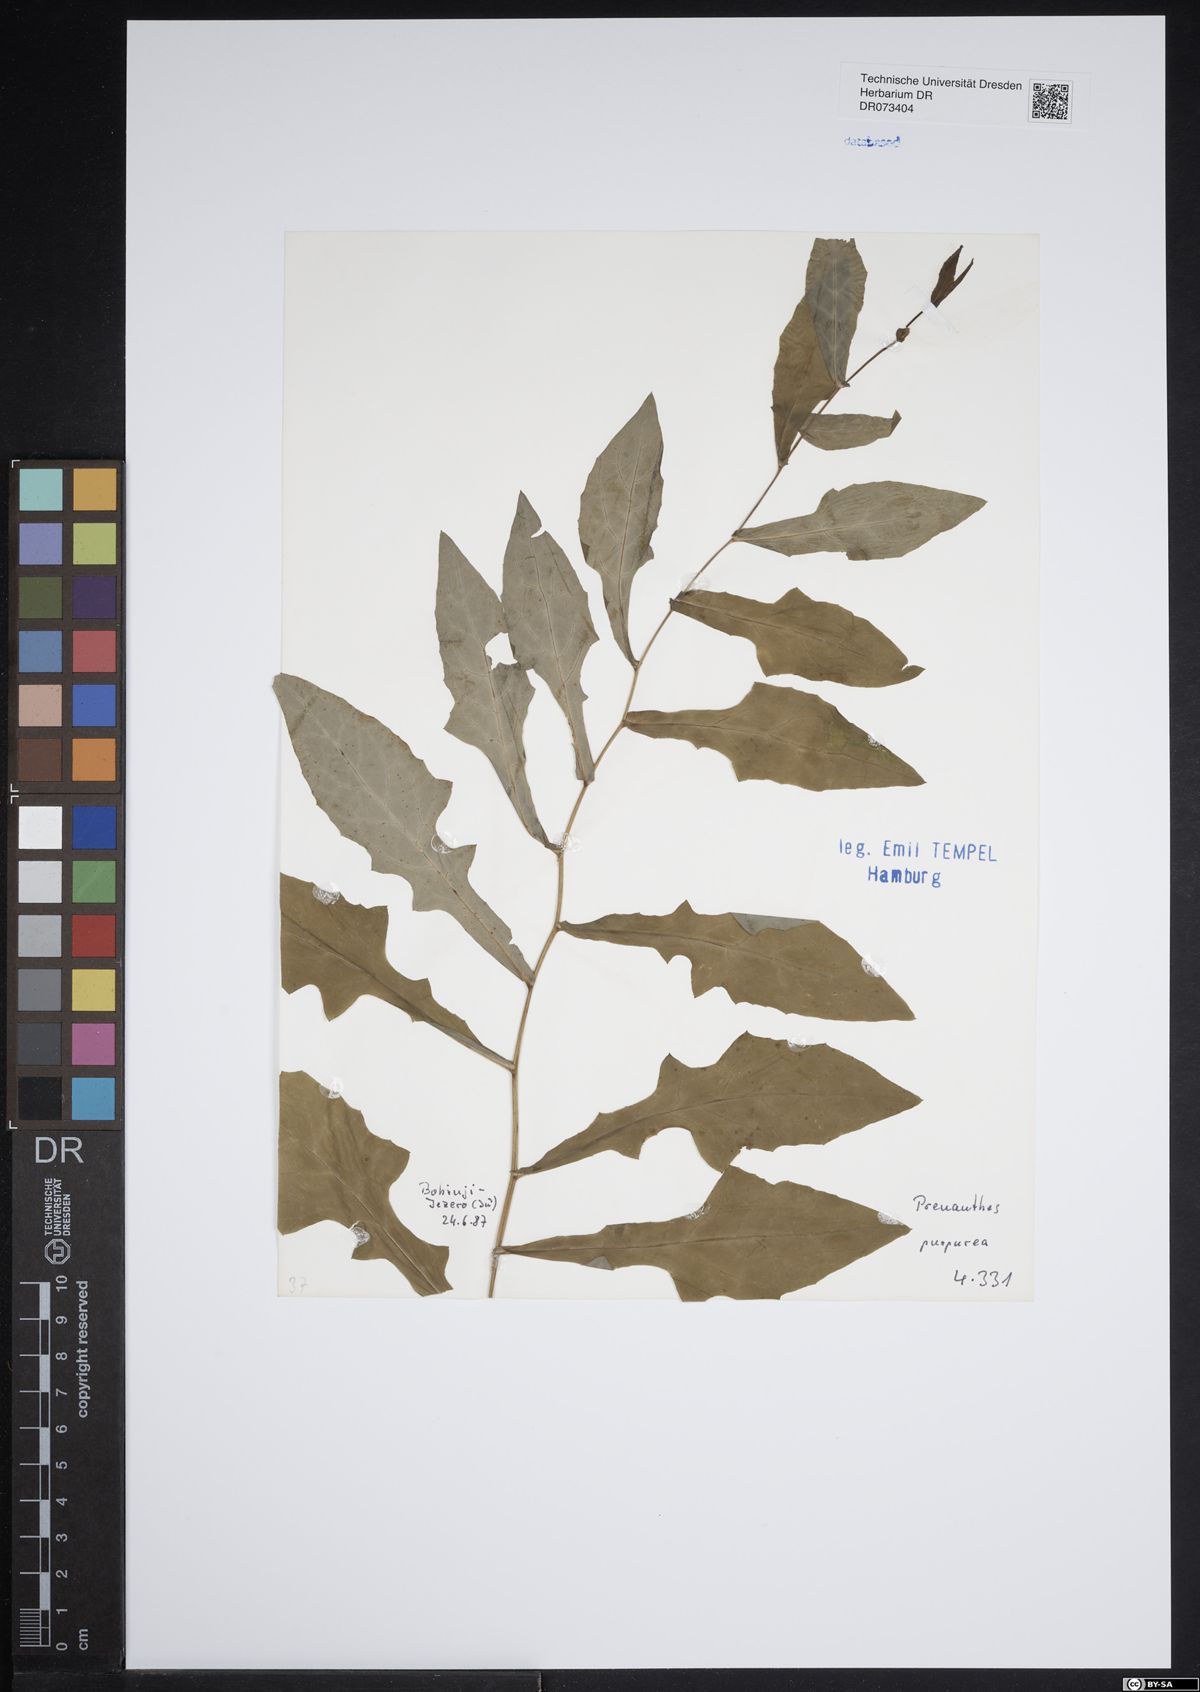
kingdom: Plantae
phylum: Tracheophyta
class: Magnoliopsida
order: Asterales
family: Asteraceae
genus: Prenanthes
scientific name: Prenanthes purpurea
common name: Purple lettuce
